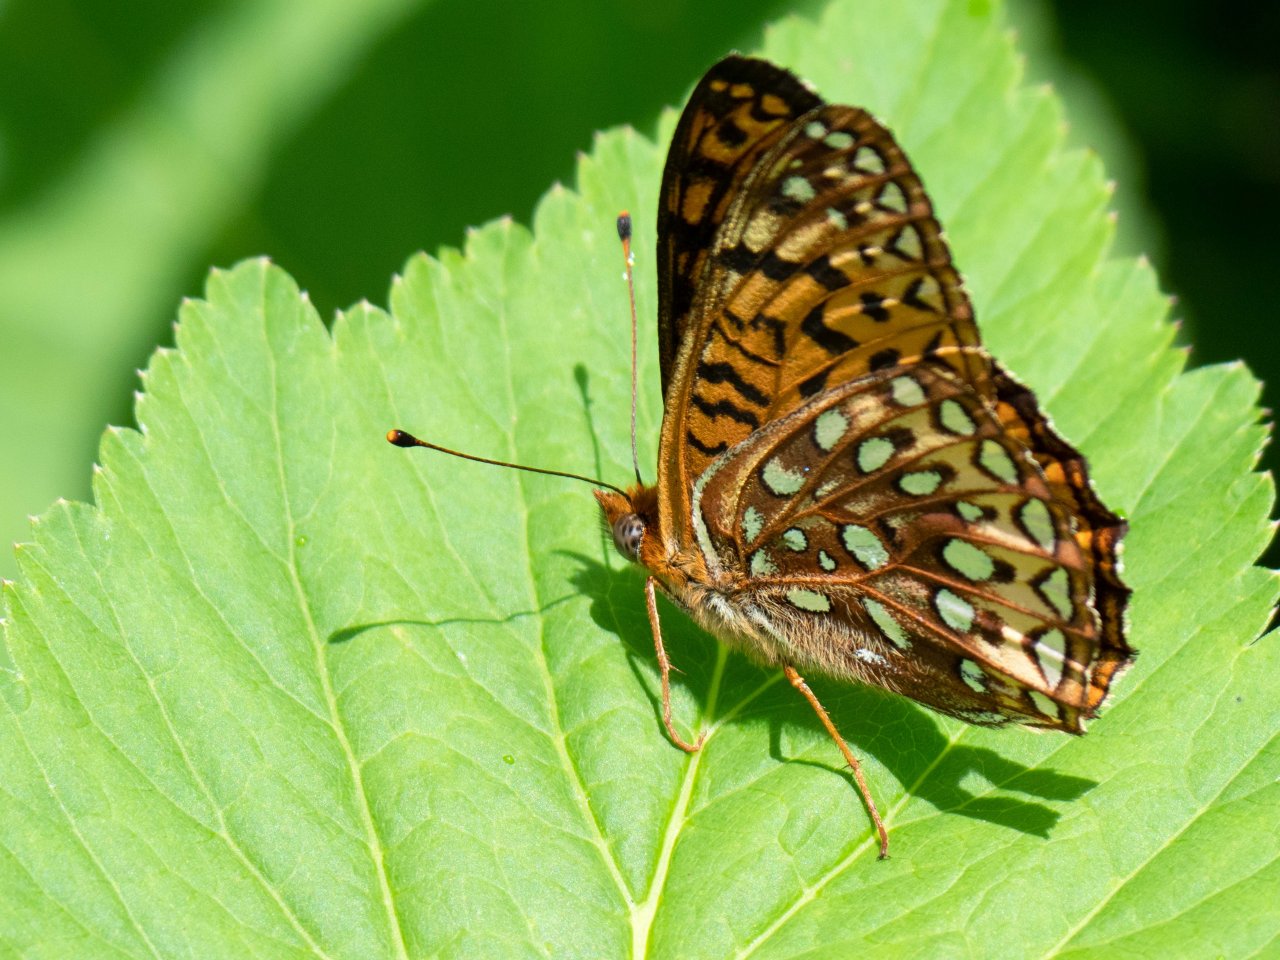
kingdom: Animalia
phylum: Arthropoda
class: Insecta
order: Lepidoptera
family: Nymphalidae
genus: Speyeria
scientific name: Speyeria atlantis
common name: Atlantis Fritillary
